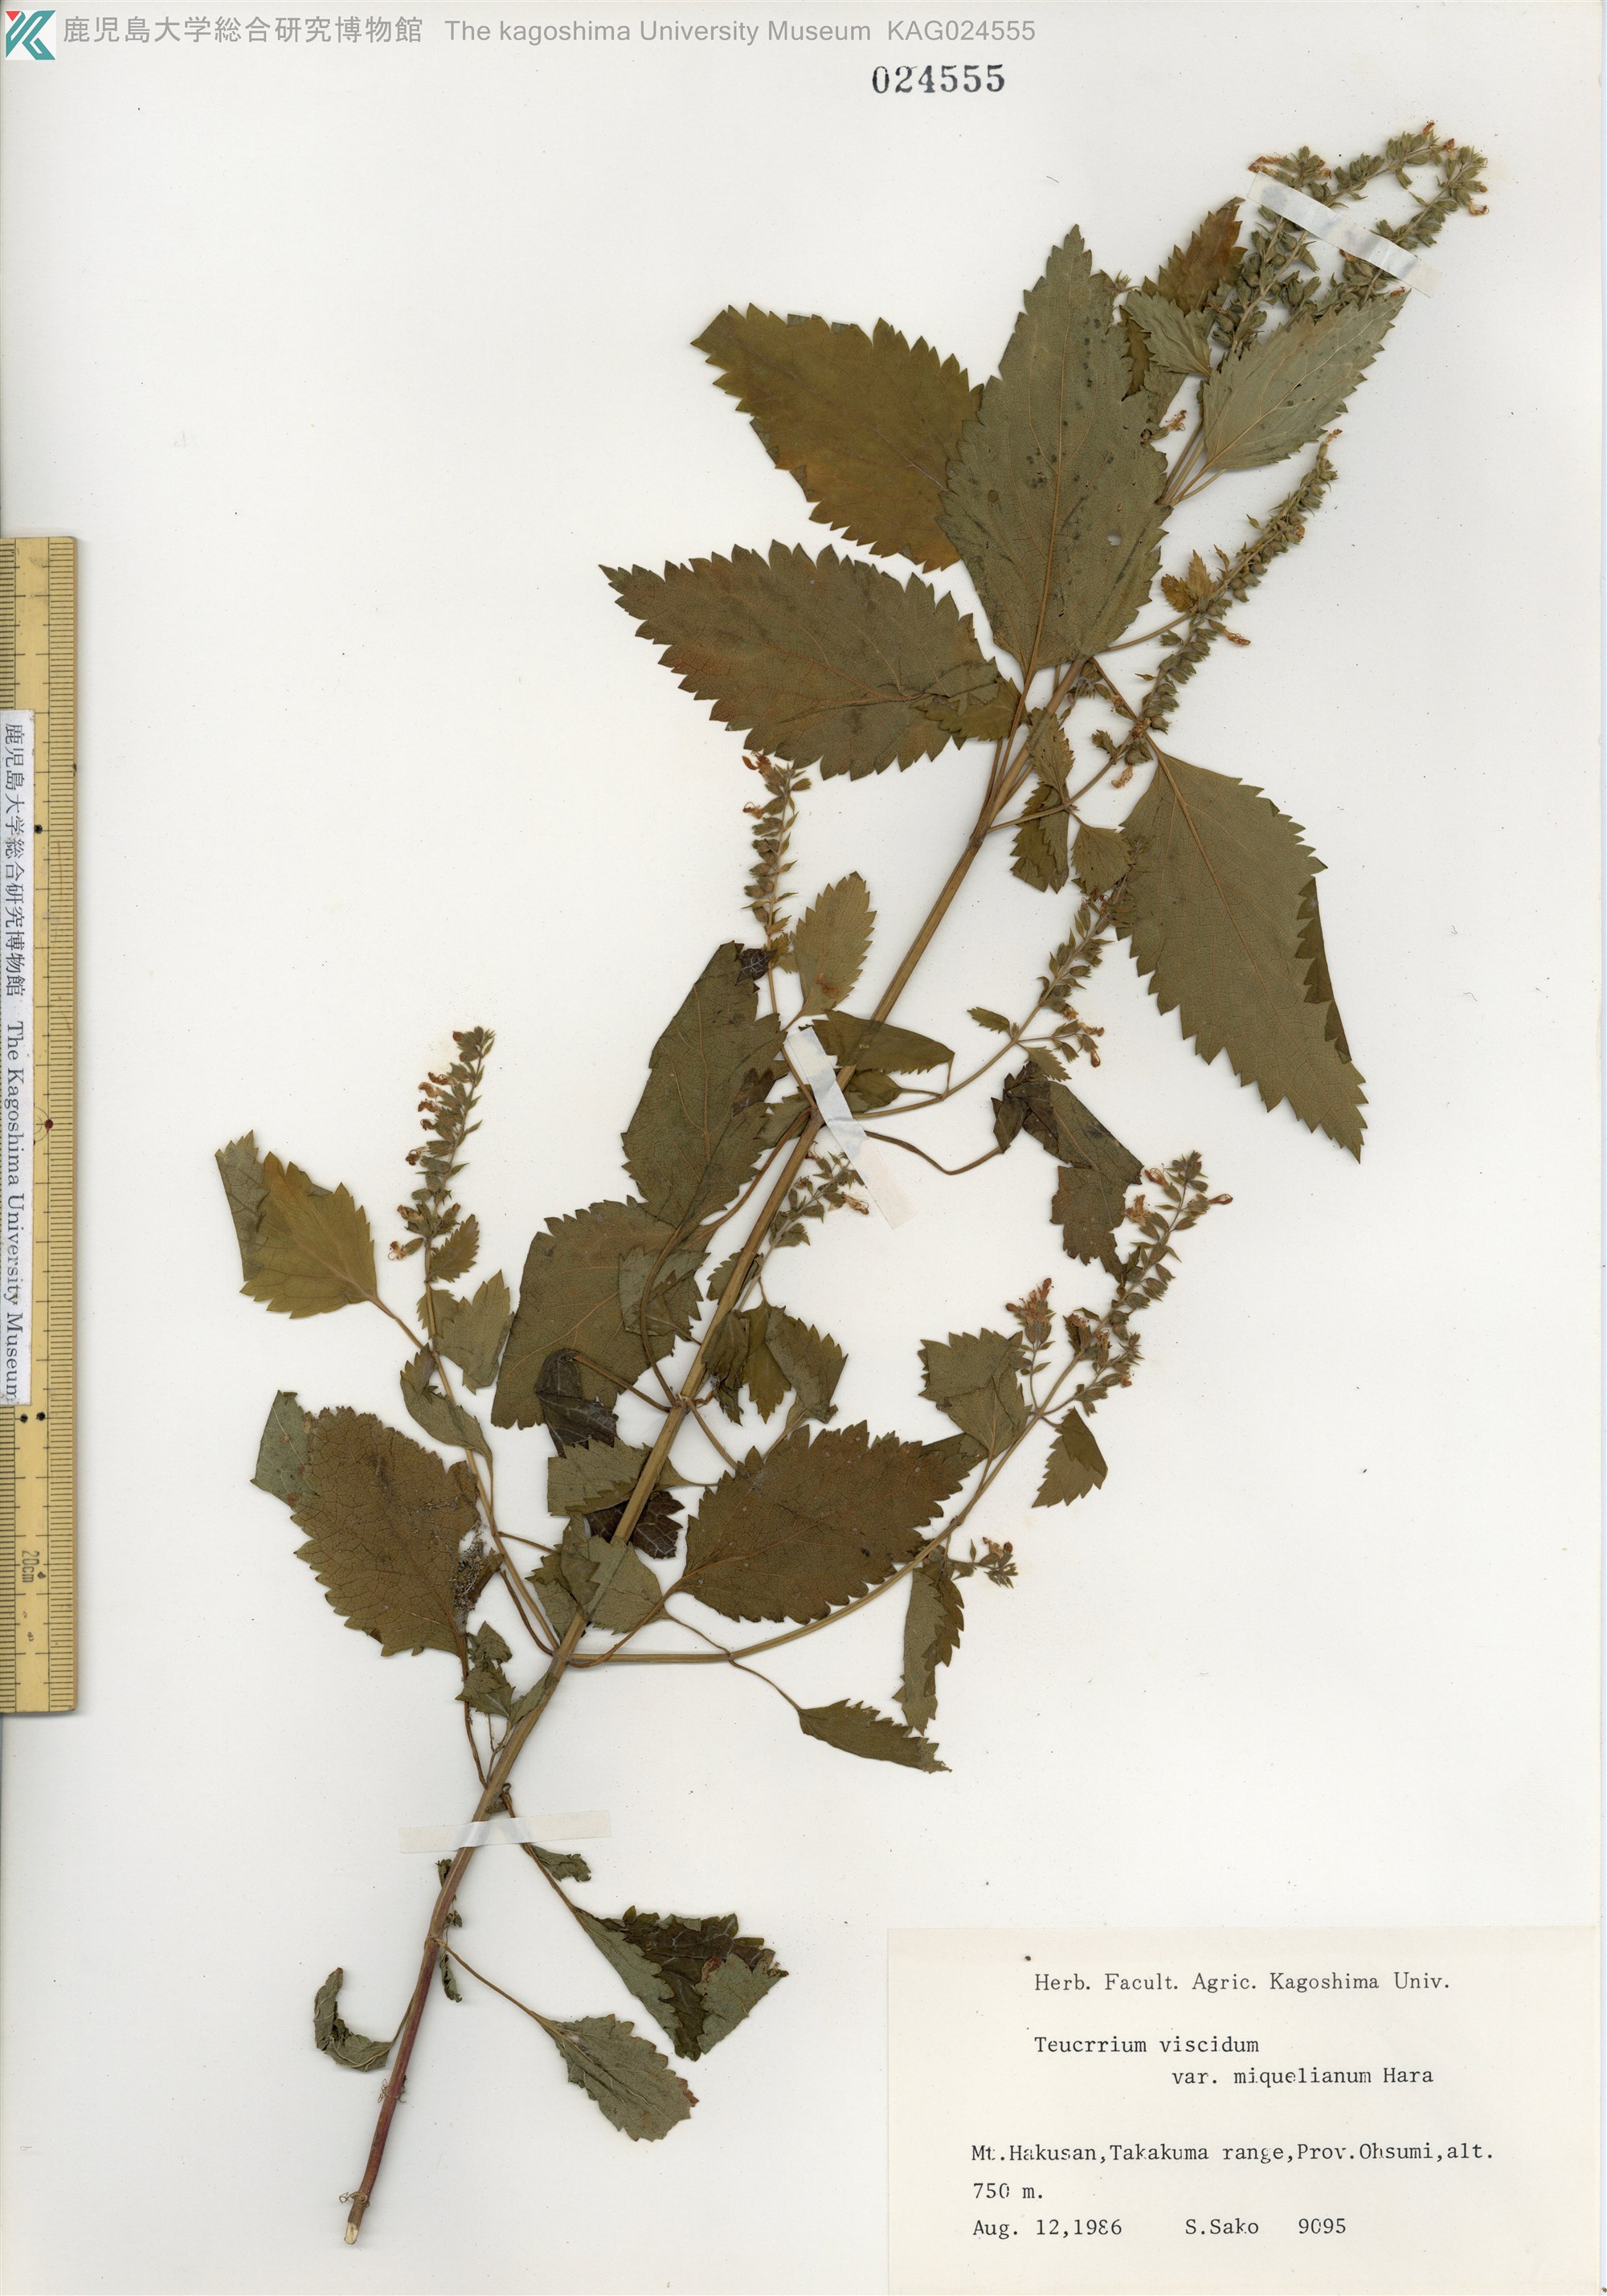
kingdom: Plantae
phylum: Tracheophyta
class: Magnoliopsida
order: Lamiales
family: Lamiaceae
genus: Teucrium
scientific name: Teucrium viscidum
